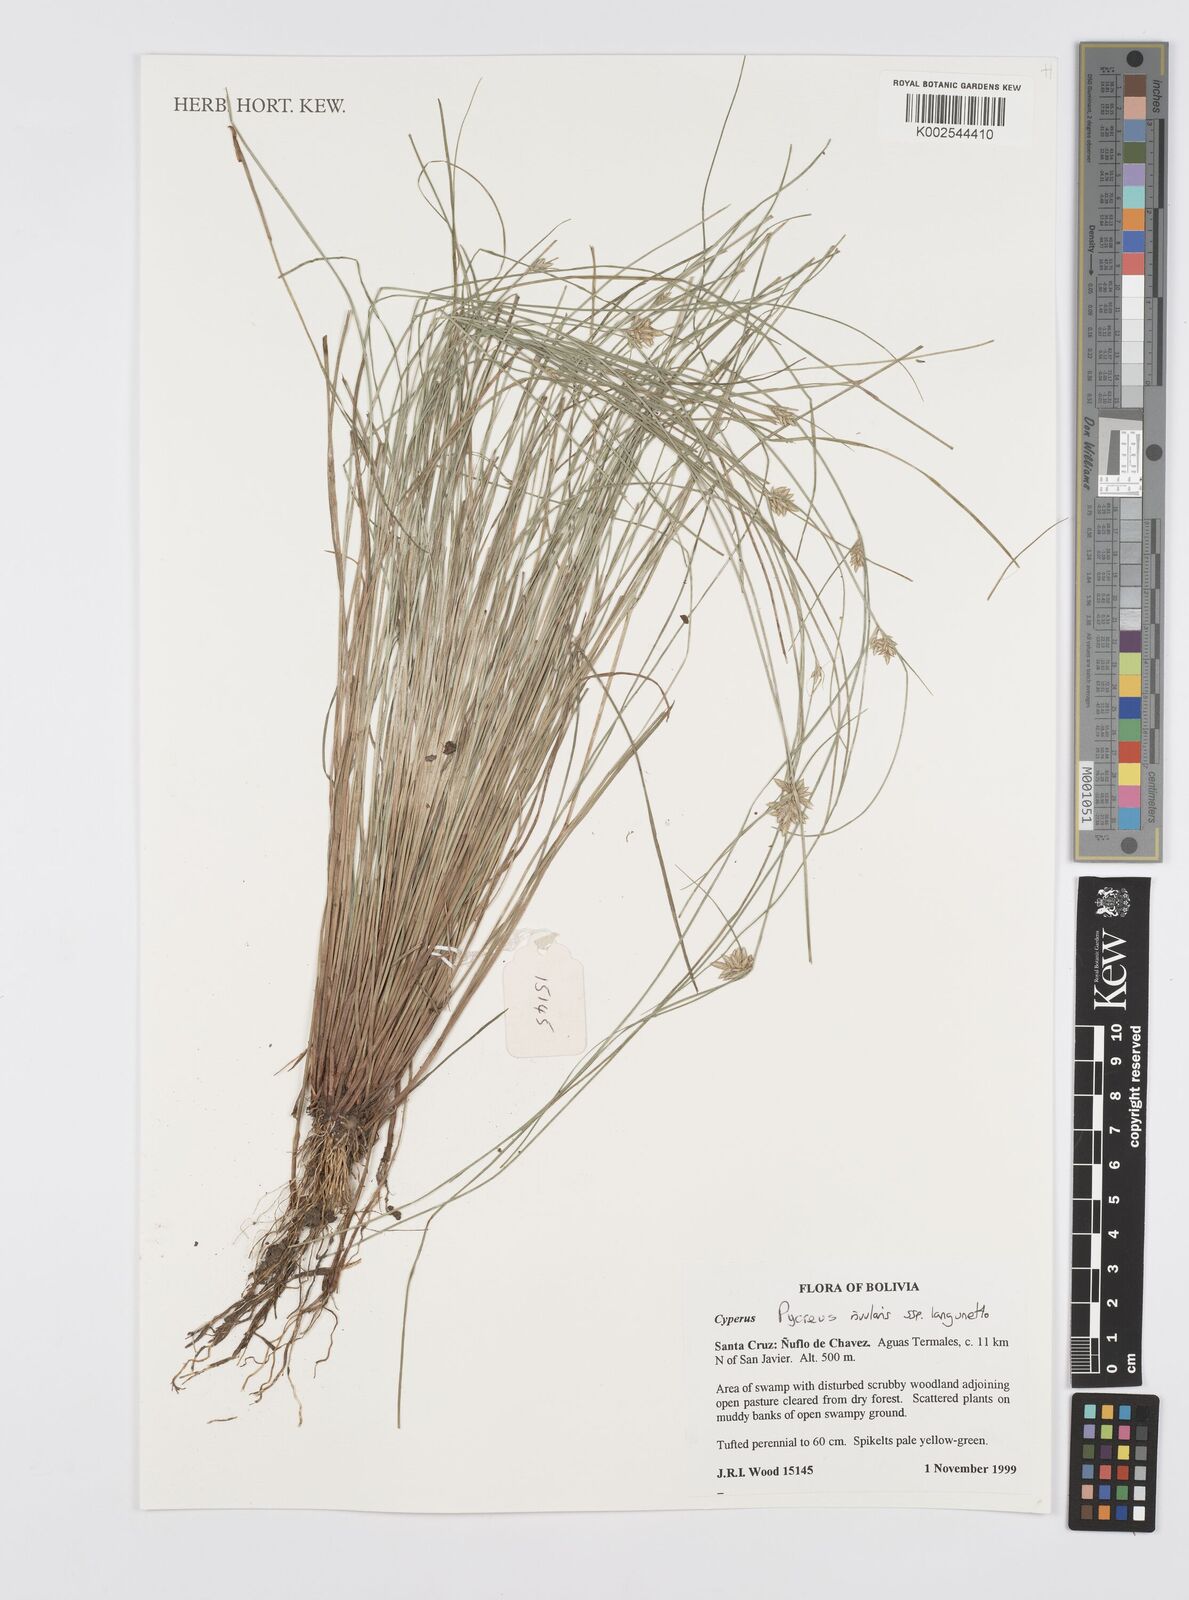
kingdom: Plantae
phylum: Tracheophyta
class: Liliopsida
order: Poales
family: Cyperaceae
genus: Cyperus
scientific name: Cyperus bipartitus
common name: Brook flatsedge
